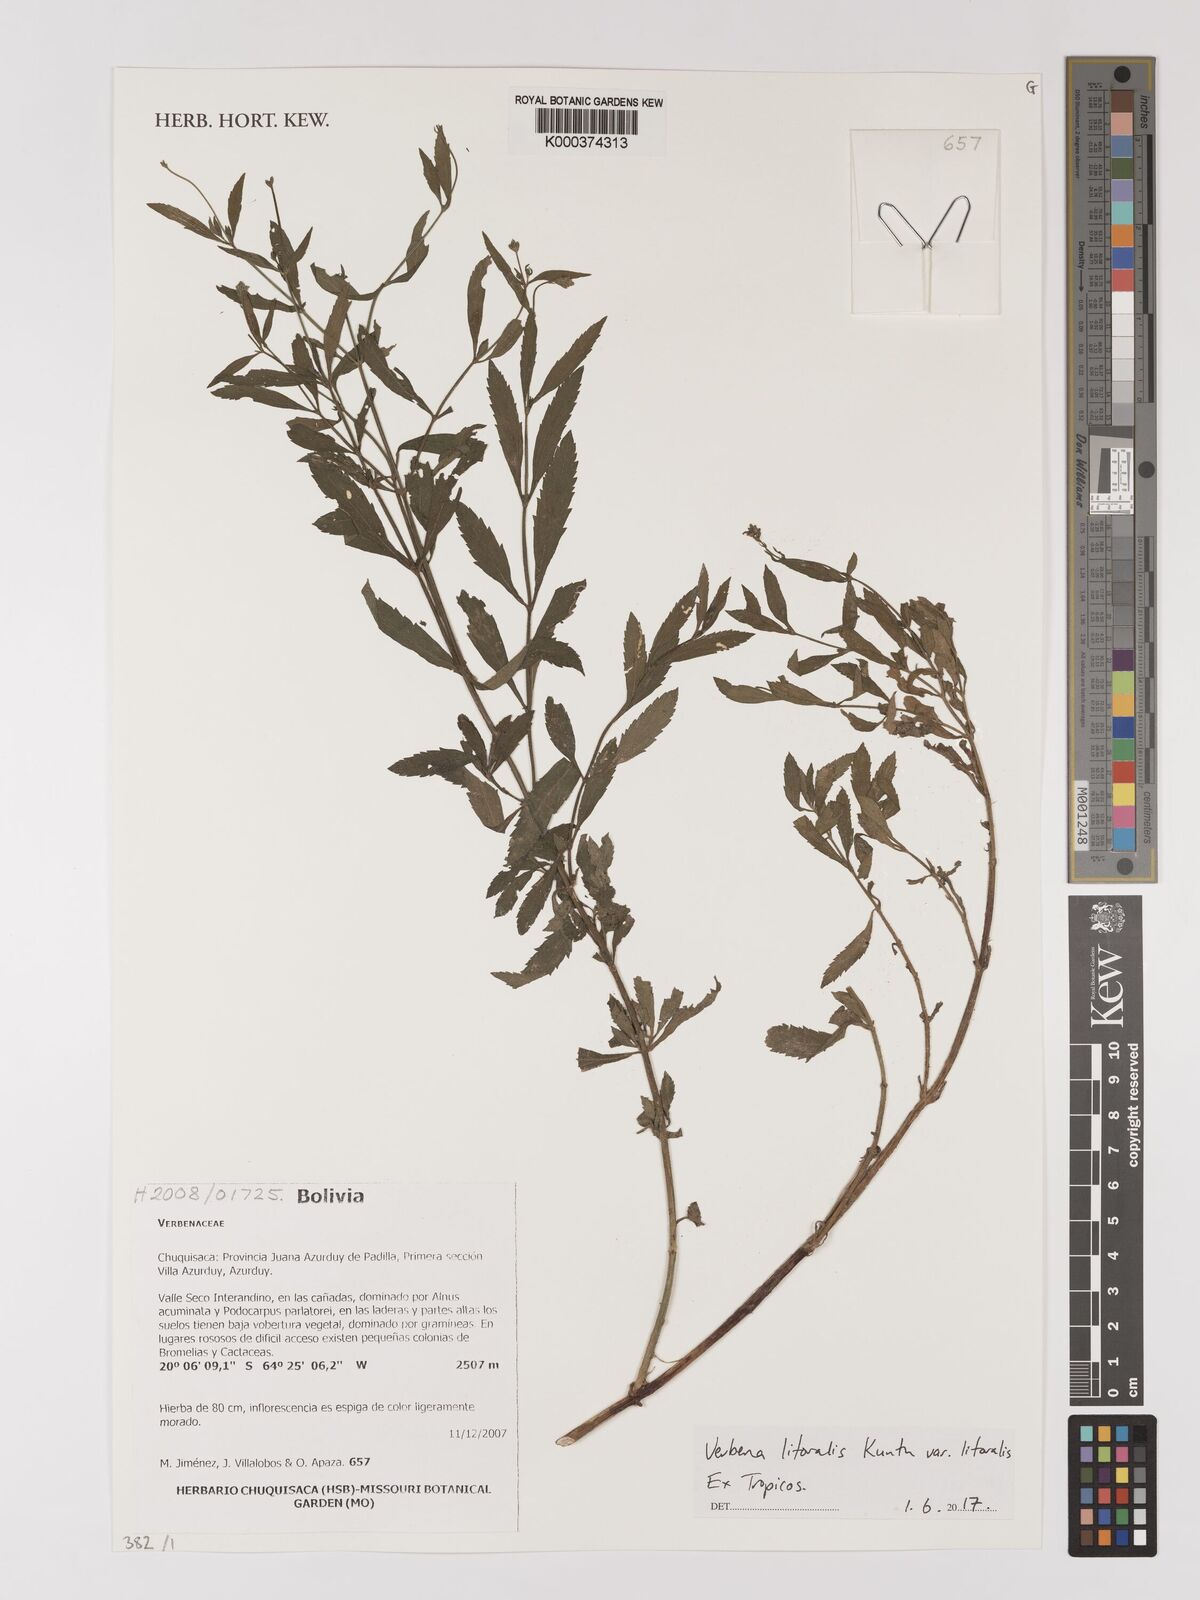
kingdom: Plantae
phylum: Tracheophyta
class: Magnoliopsida
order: Lamiales
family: Verbenaceae
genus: Verbena
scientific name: Verbena litoralis
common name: Seashore vervain
